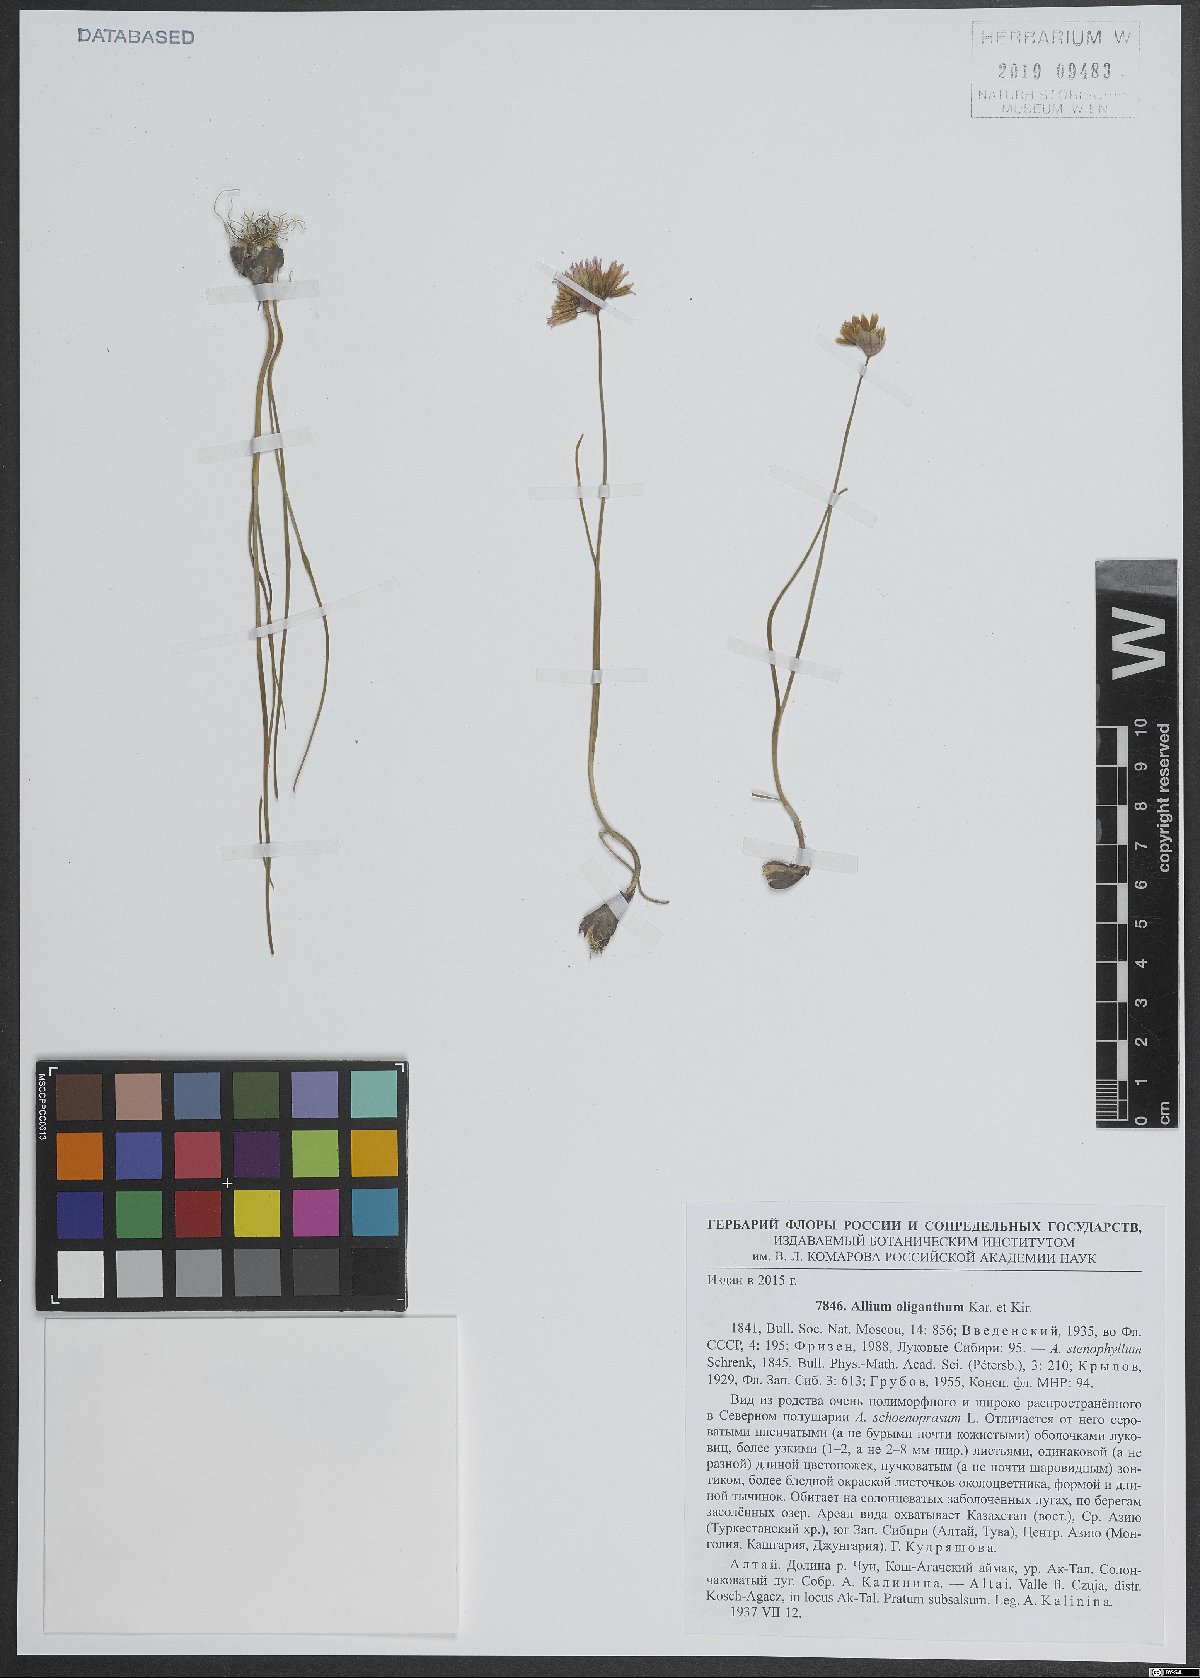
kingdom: Plantae
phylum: Tracheophyta
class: Liliopsida
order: Asparagales
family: Amaryllidaceae
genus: Allium
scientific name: Allium oliganthum
